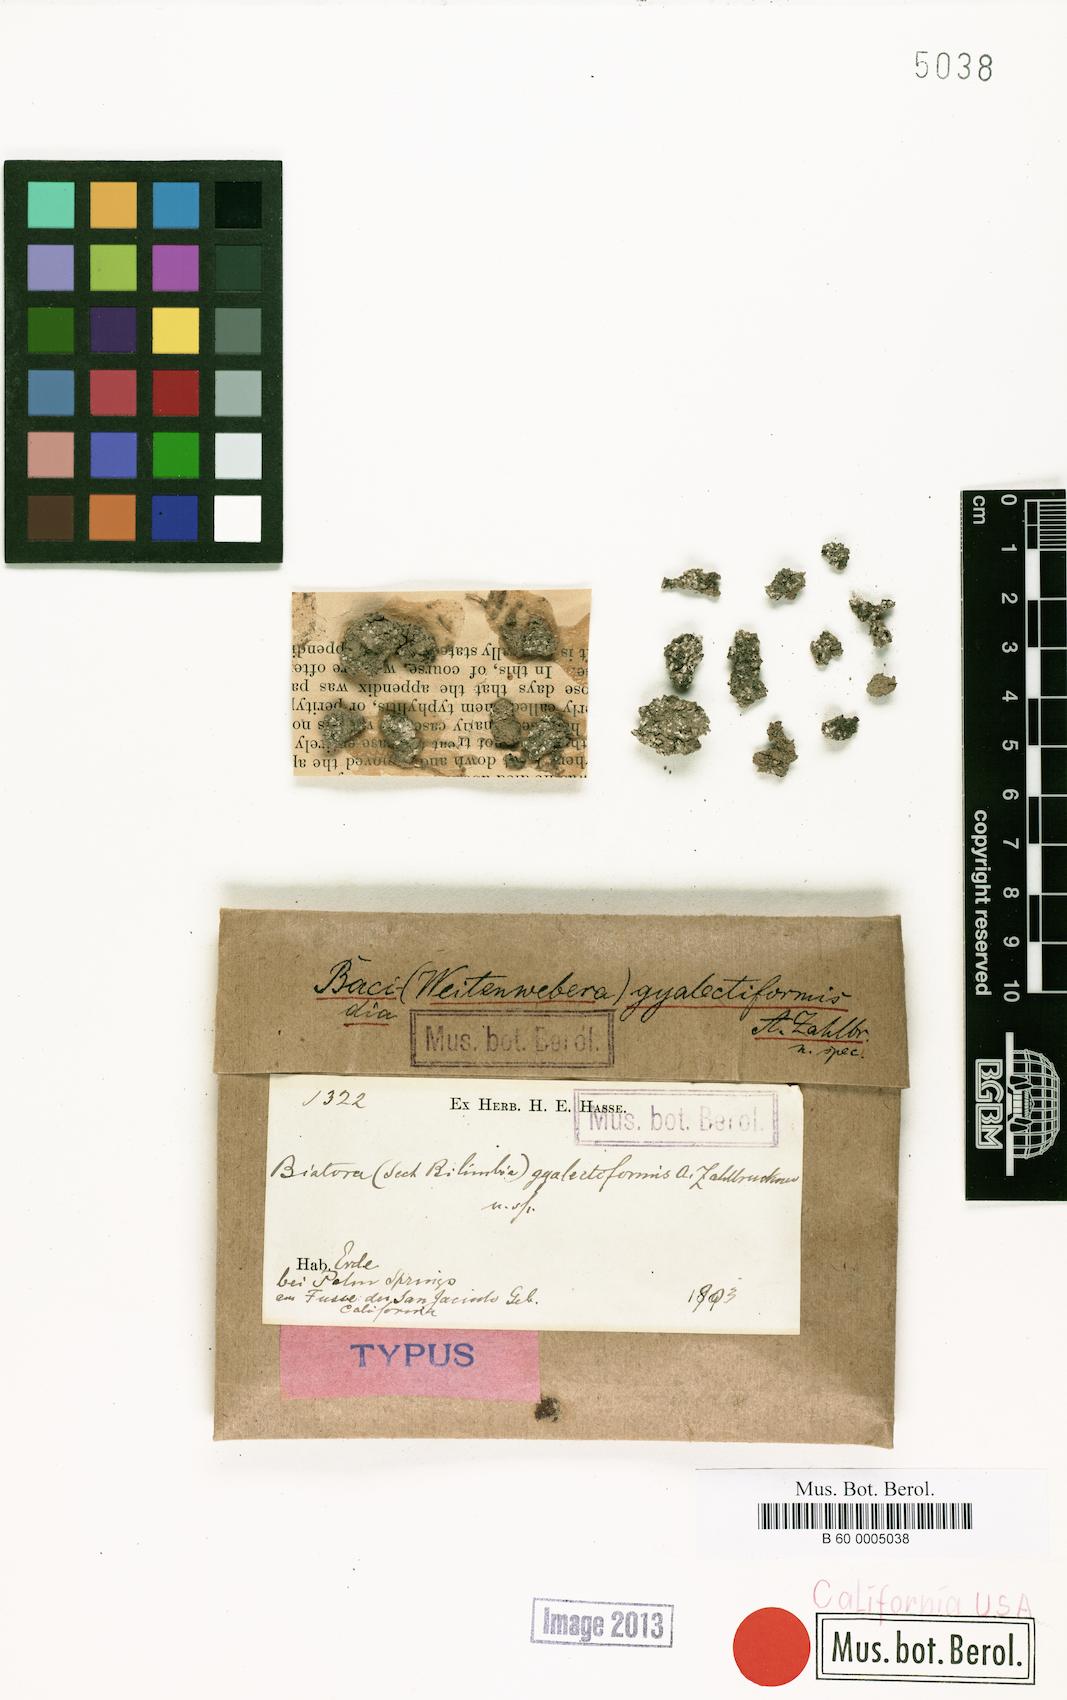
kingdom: Fungi
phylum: Ascomycota
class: Lecanoromycetes
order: Gyalectales
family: Gyalectaceae
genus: Ramonia
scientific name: Ramonia gyalectiformis
